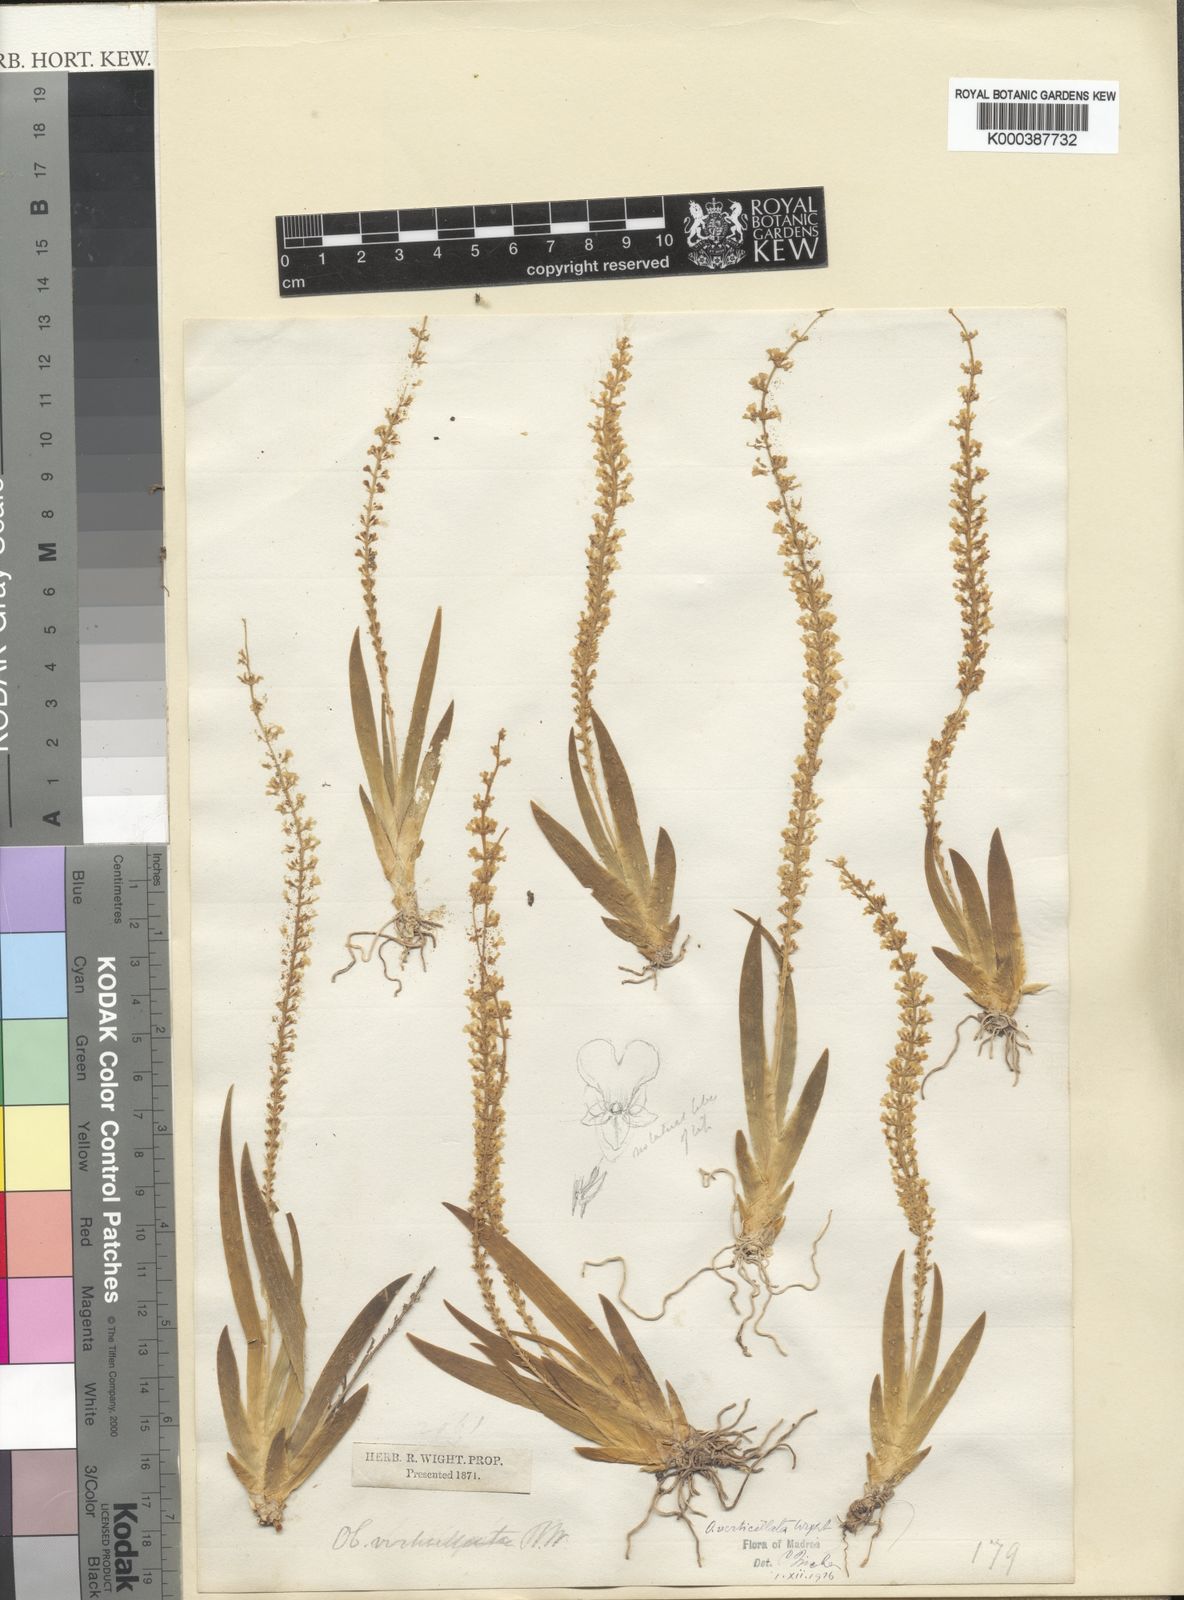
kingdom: Plantae
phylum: Tracheophyta
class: Liliopsida
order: Asparagales
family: Orchidaceae
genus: Oberonia
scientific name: Oberonia verticillata
